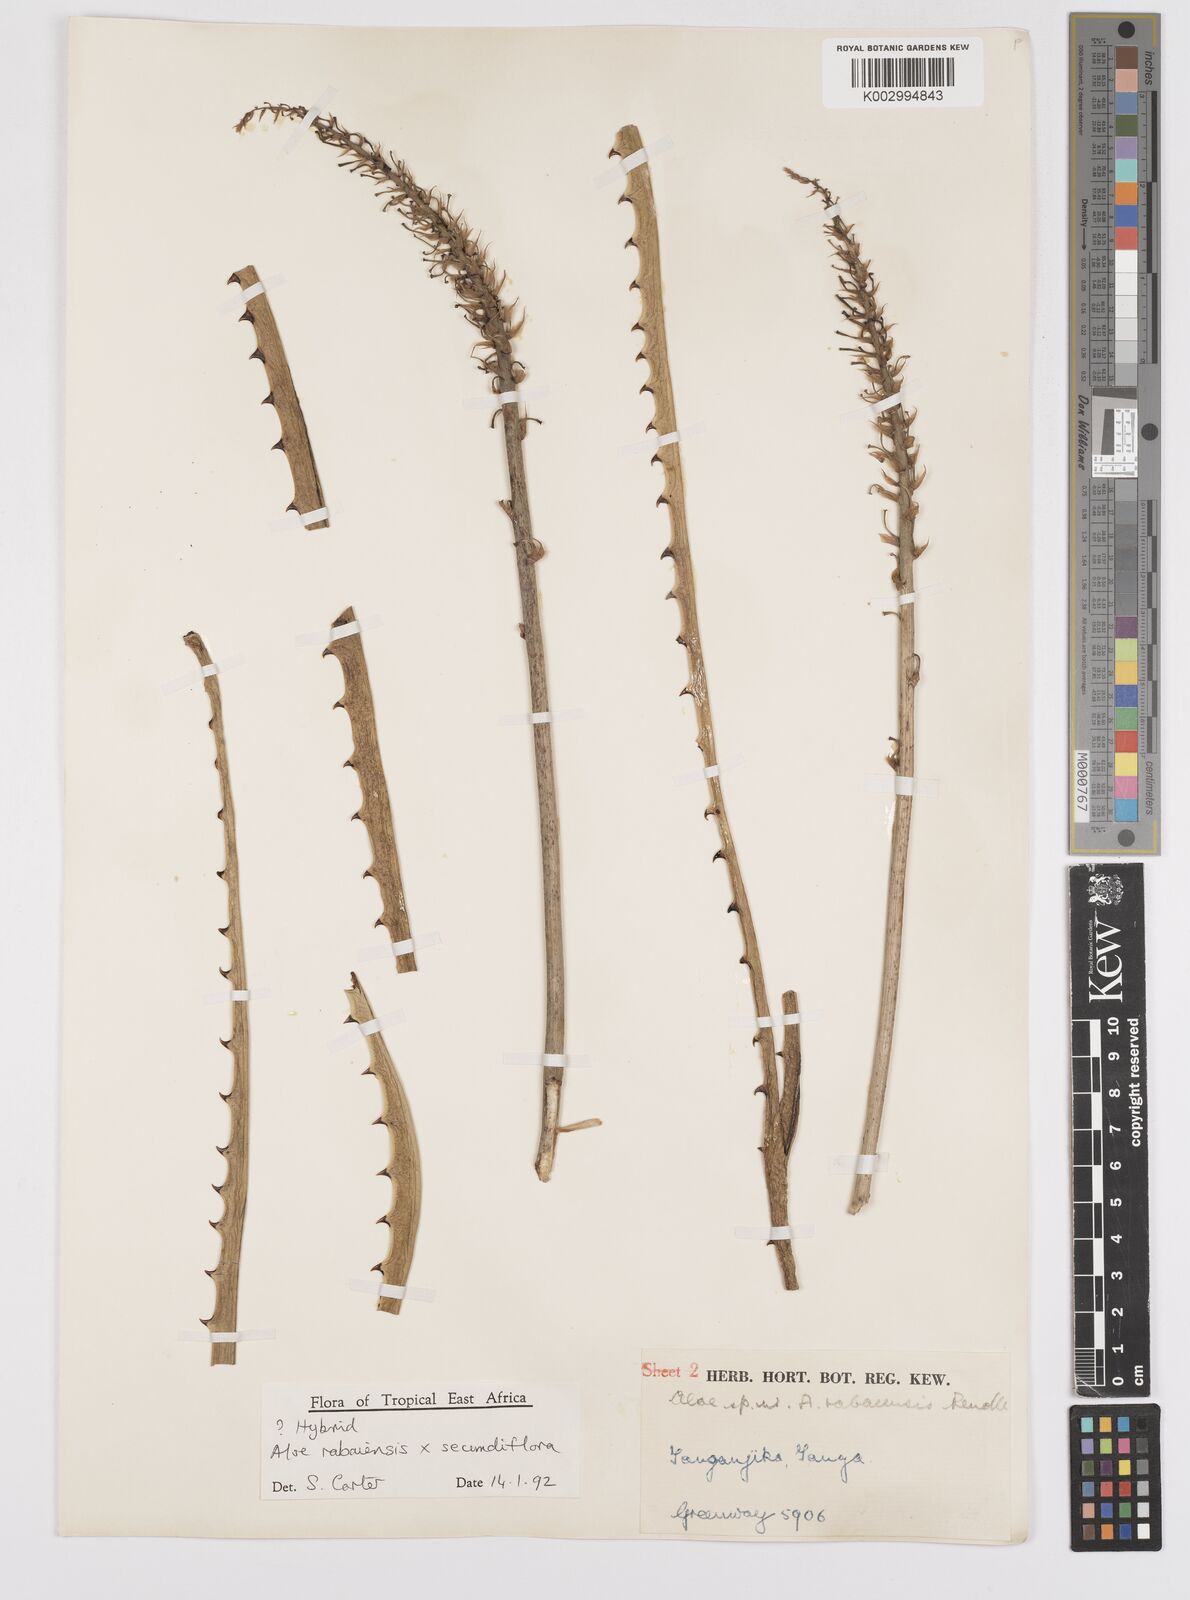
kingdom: Plantae
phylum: Tracheophyta
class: Liliopsida
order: Asparagales
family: Asphodelaceae
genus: Aloe
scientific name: Aloe rabaiensis
